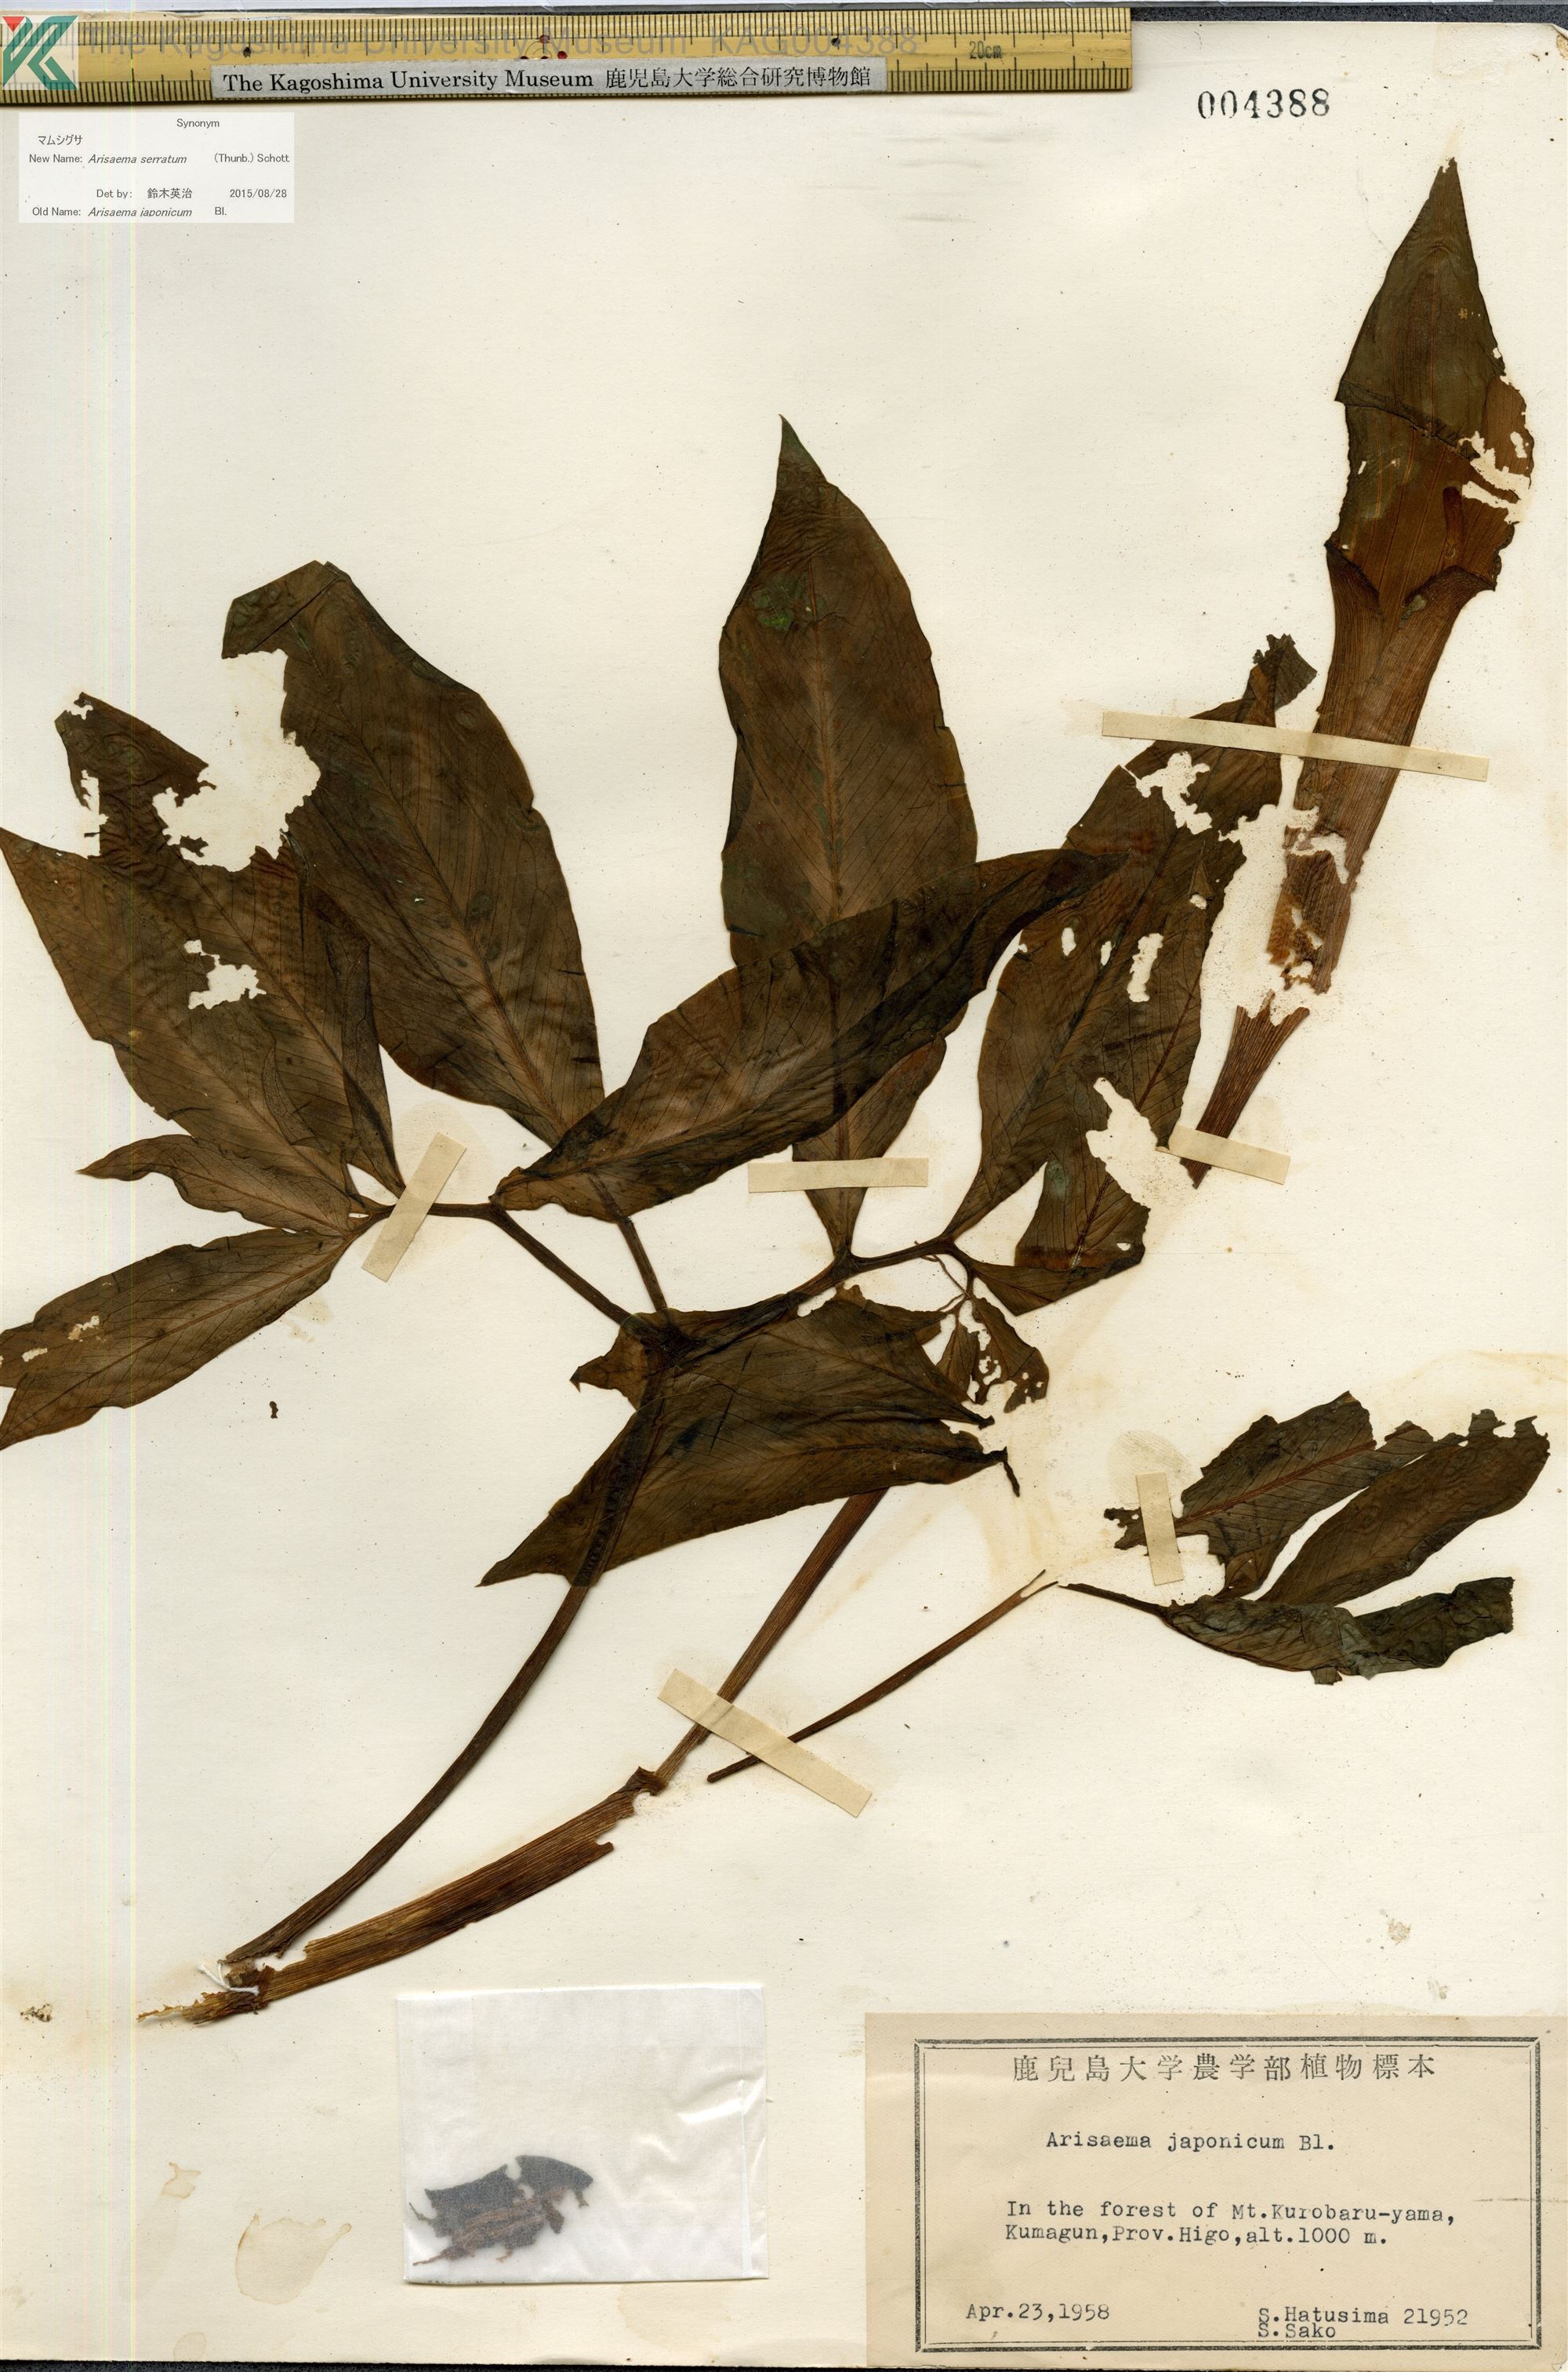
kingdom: Plantae
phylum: Tracheophyta
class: Liliopsida
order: Alismatales
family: Araceae
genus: Arisaema
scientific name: Arisaema serratum
